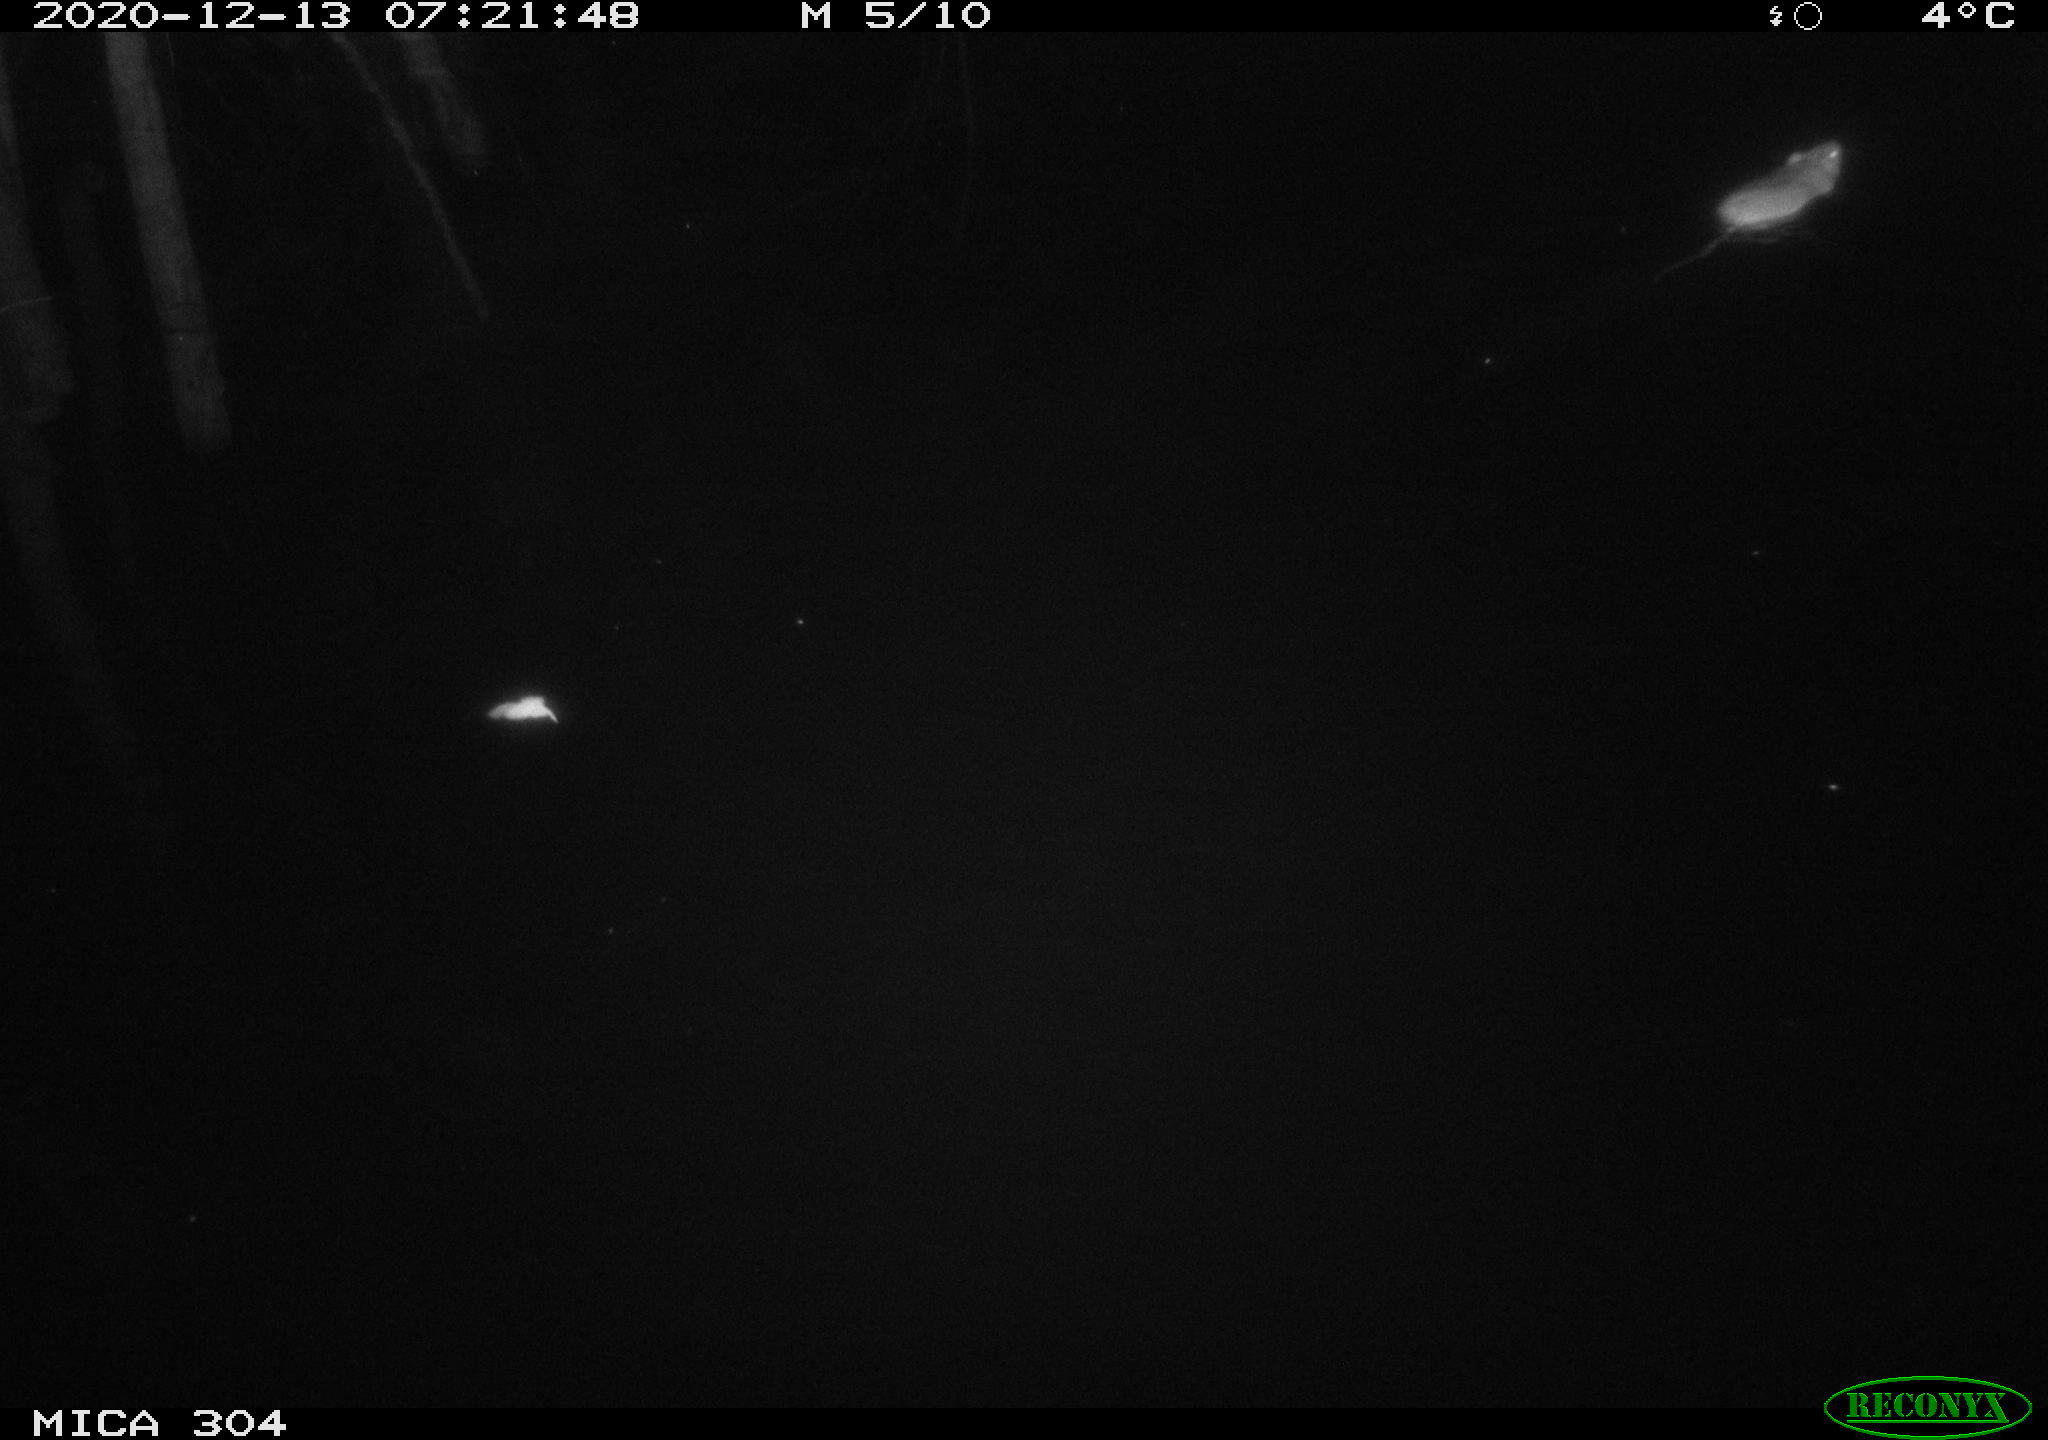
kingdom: Animalia
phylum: Chordata
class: Mammalia
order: Rodentia
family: Cricetidae
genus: Ondatra
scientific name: Ondatra zibethicus
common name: Muskrat
